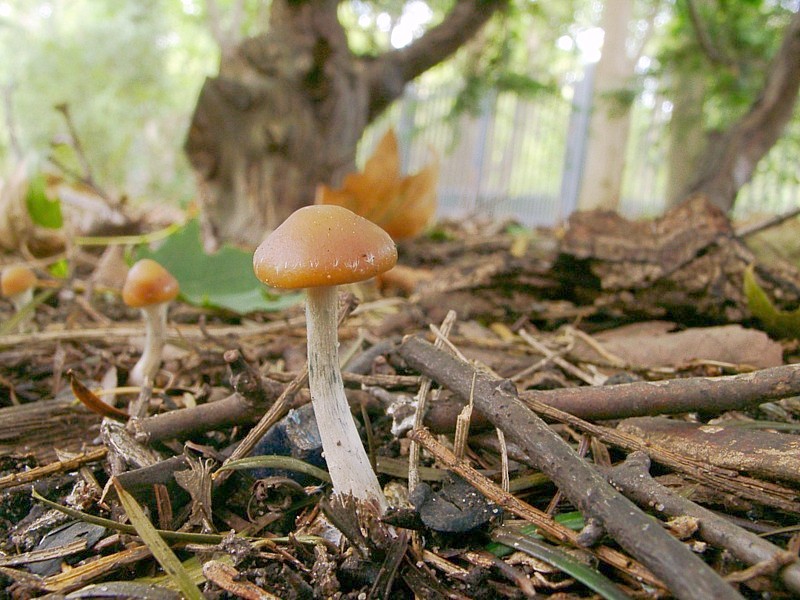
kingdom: Fungi
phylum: Basidiomycota
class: Agaricomycetes
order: Agaricales
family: Hymenogastraceae
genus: Psilocybe
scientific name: Psilocybe cyanescens
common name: Blueleg brownie
